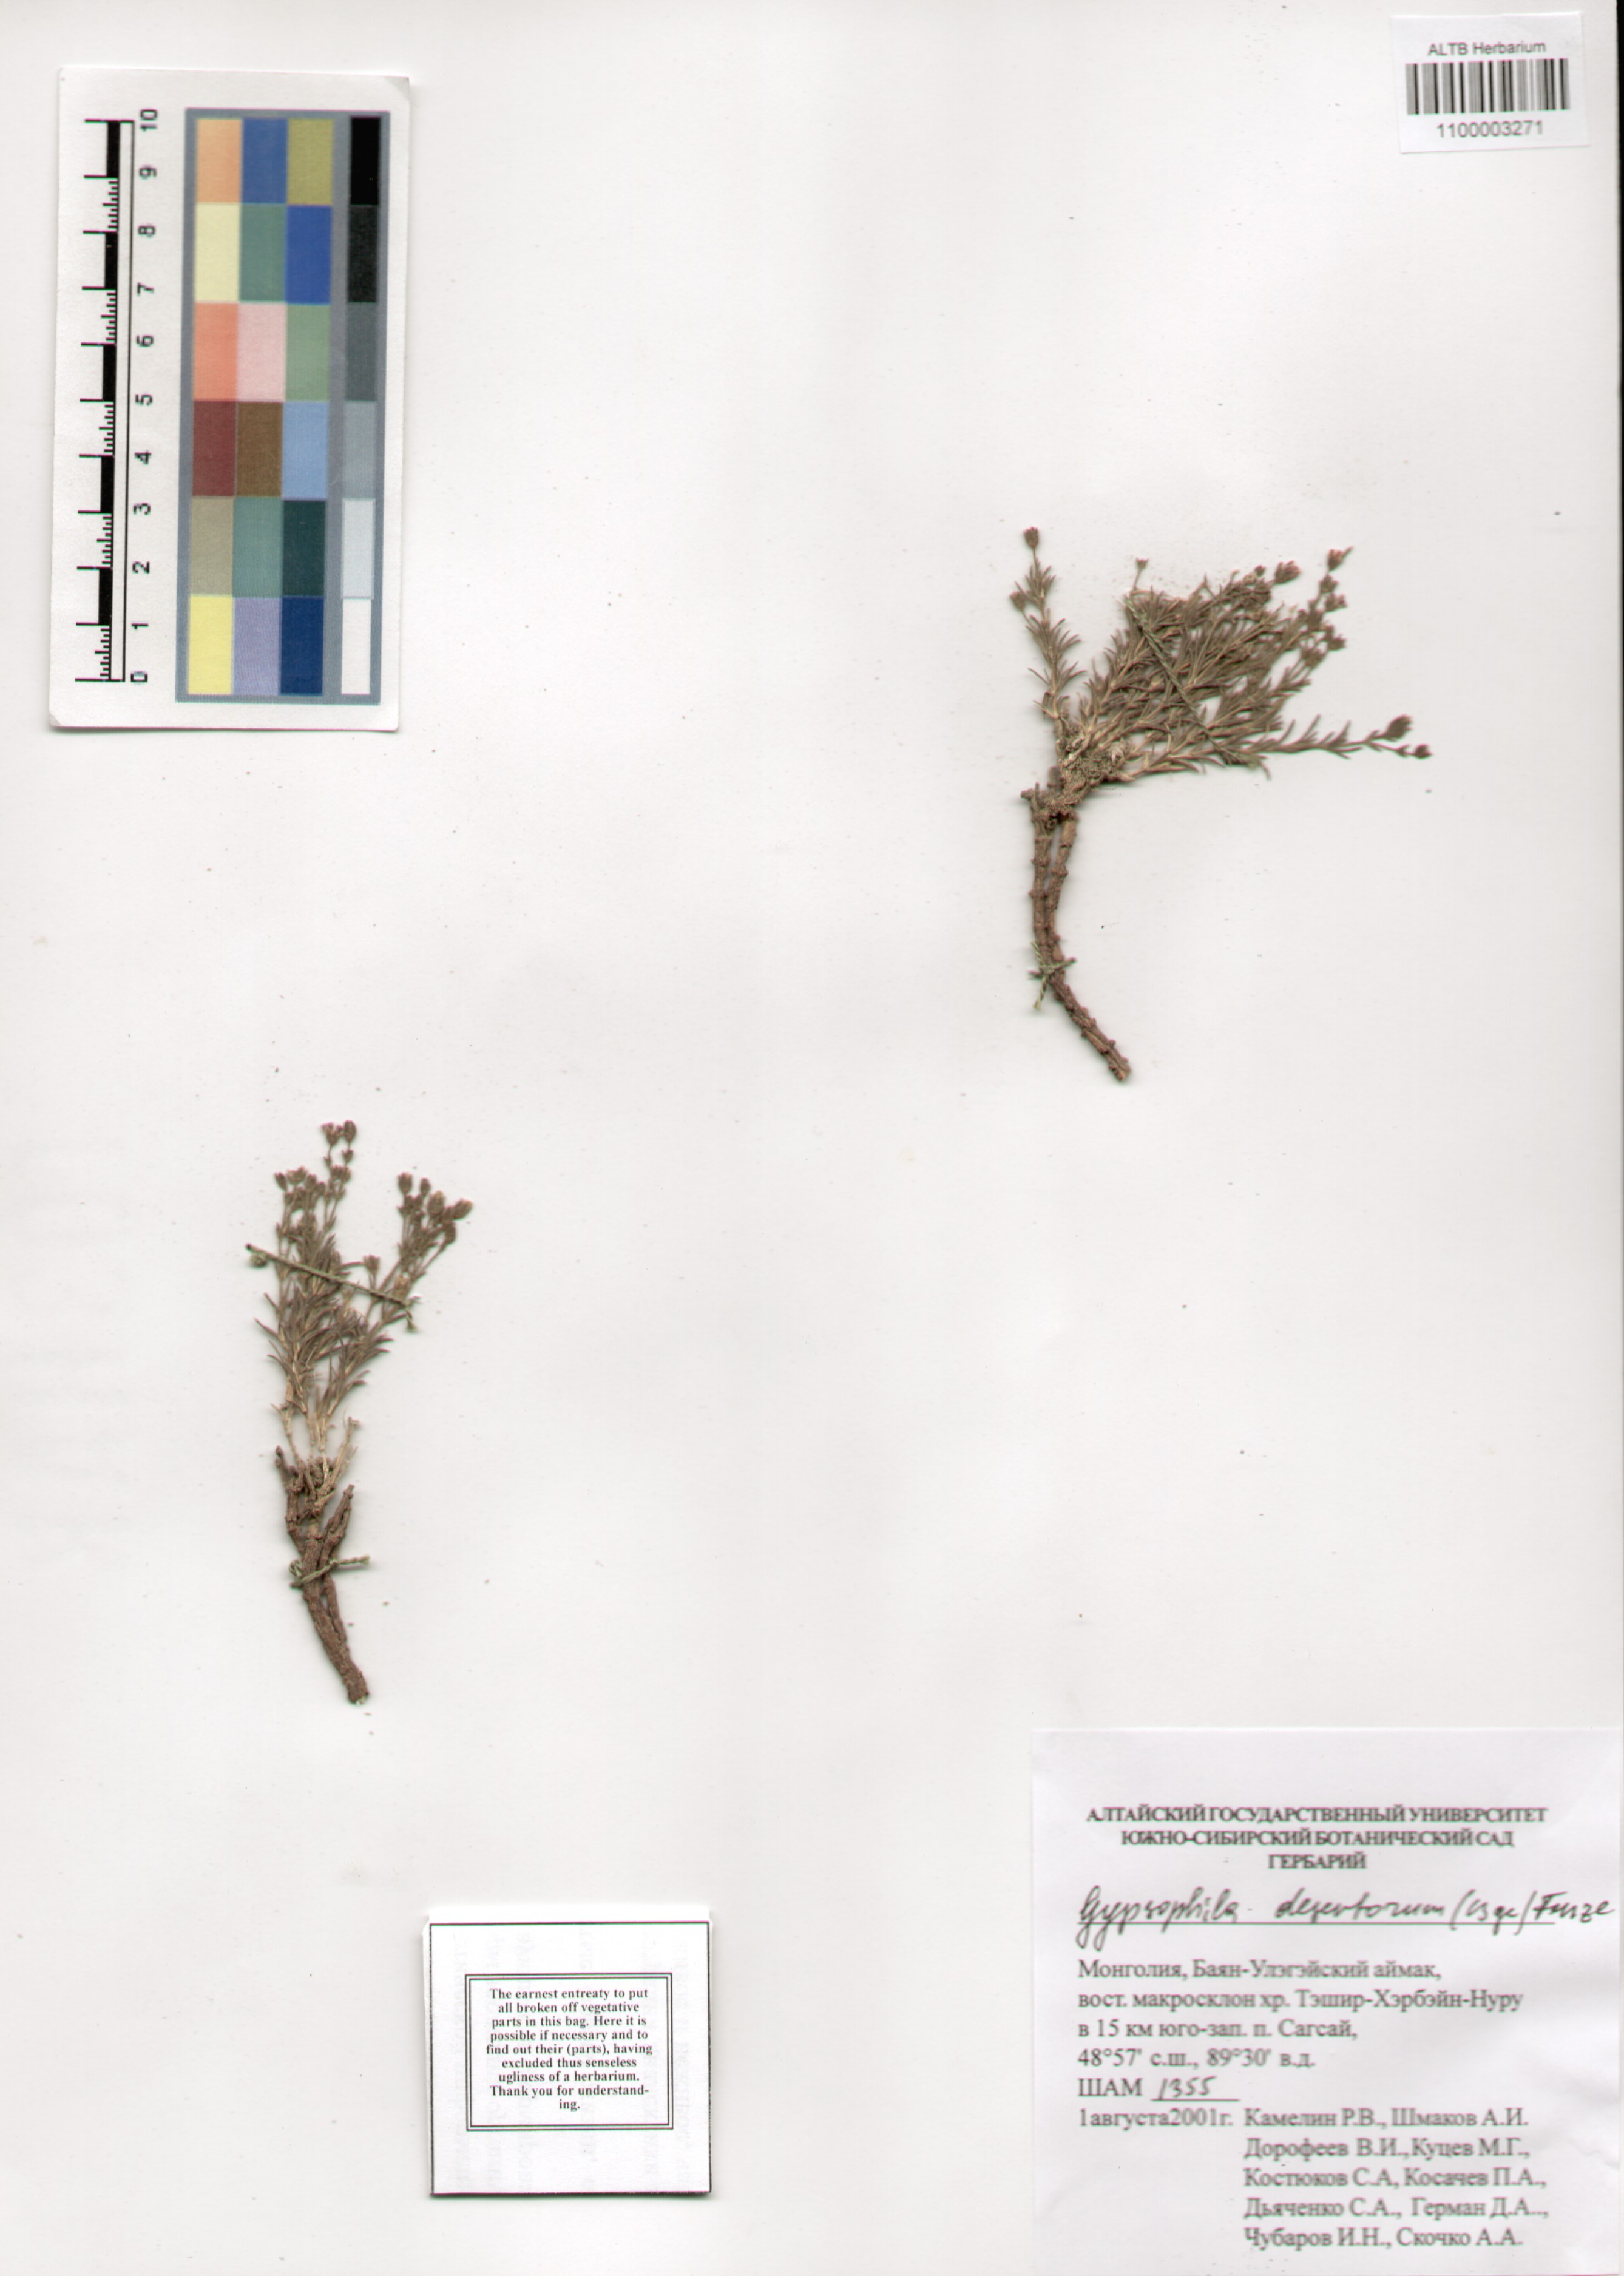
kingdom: Plantae
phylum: Tracheophyta
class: Magnoliopsida
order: Caryophyllales
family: Caryophyllaceae
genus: Heterochroa
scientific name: Heterochroa desertorum
